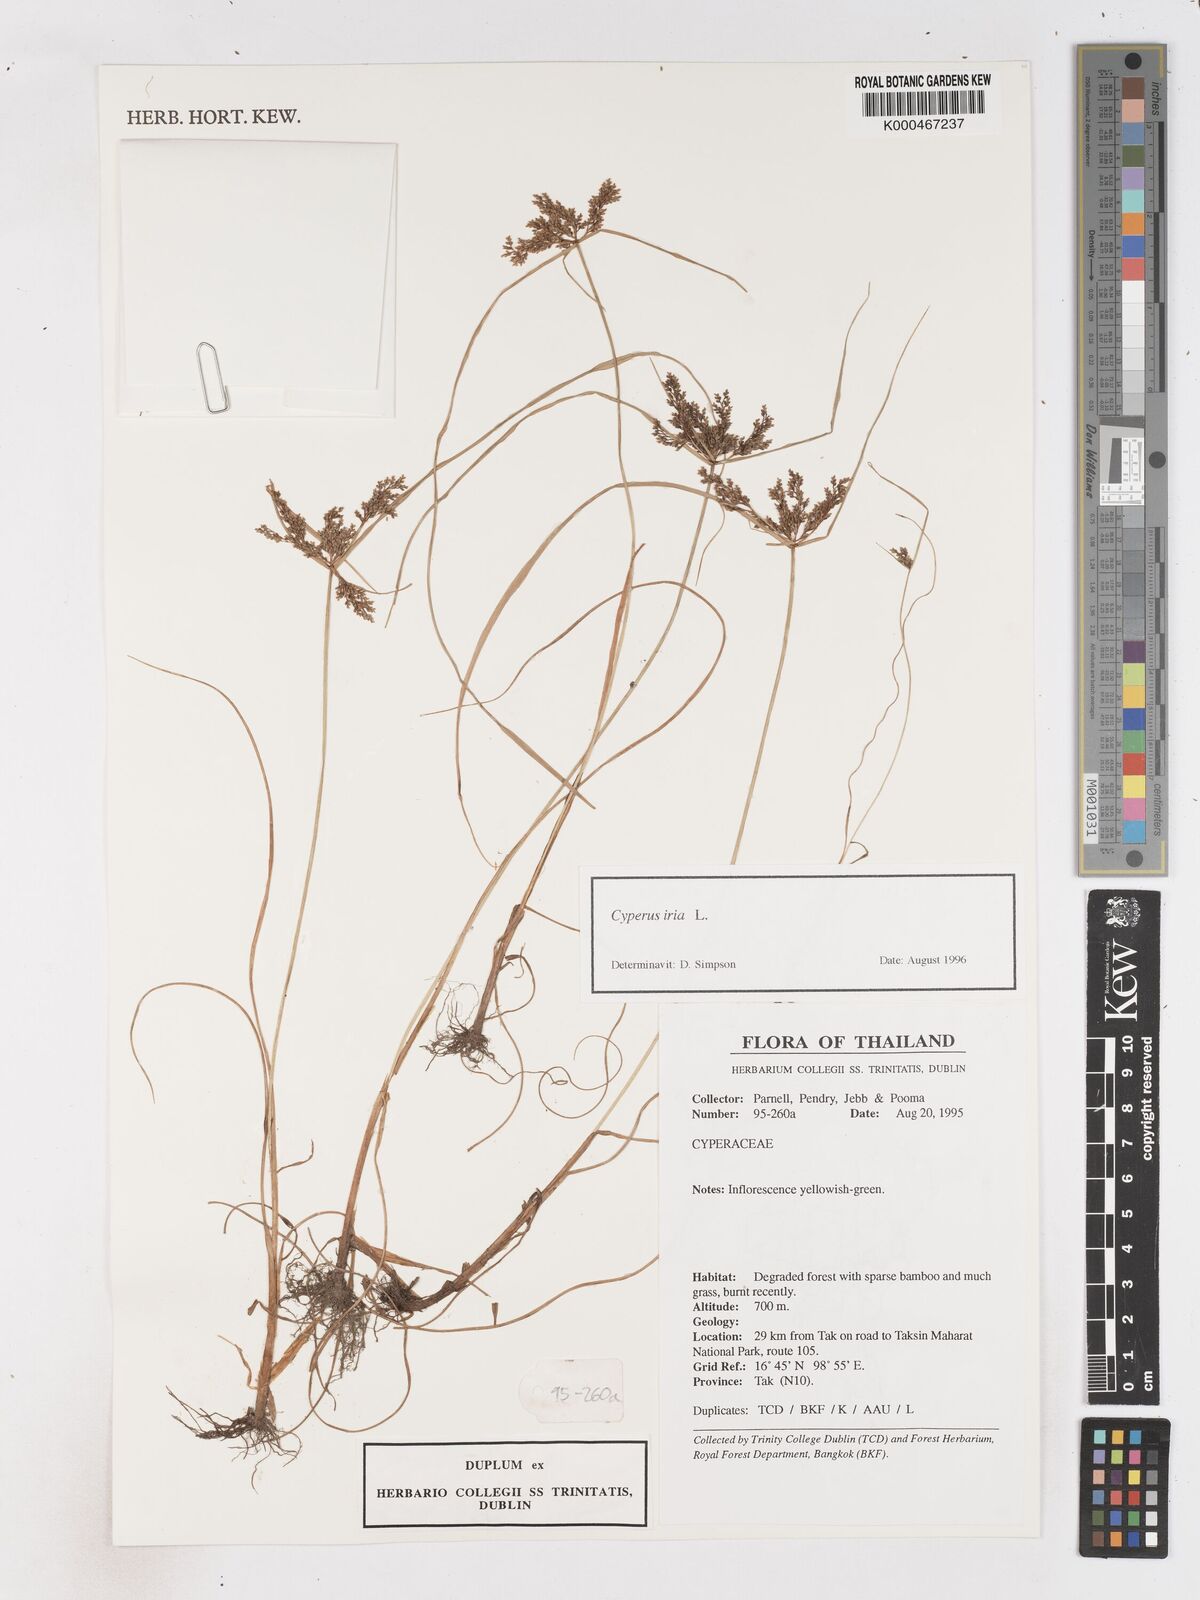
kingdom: Plantae
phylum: Tracheophyta
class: Liliopsida
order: Poales
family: Cyperaceae
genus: Cyperus
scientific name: Cyperus iria
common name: Ricefield flatsedge
